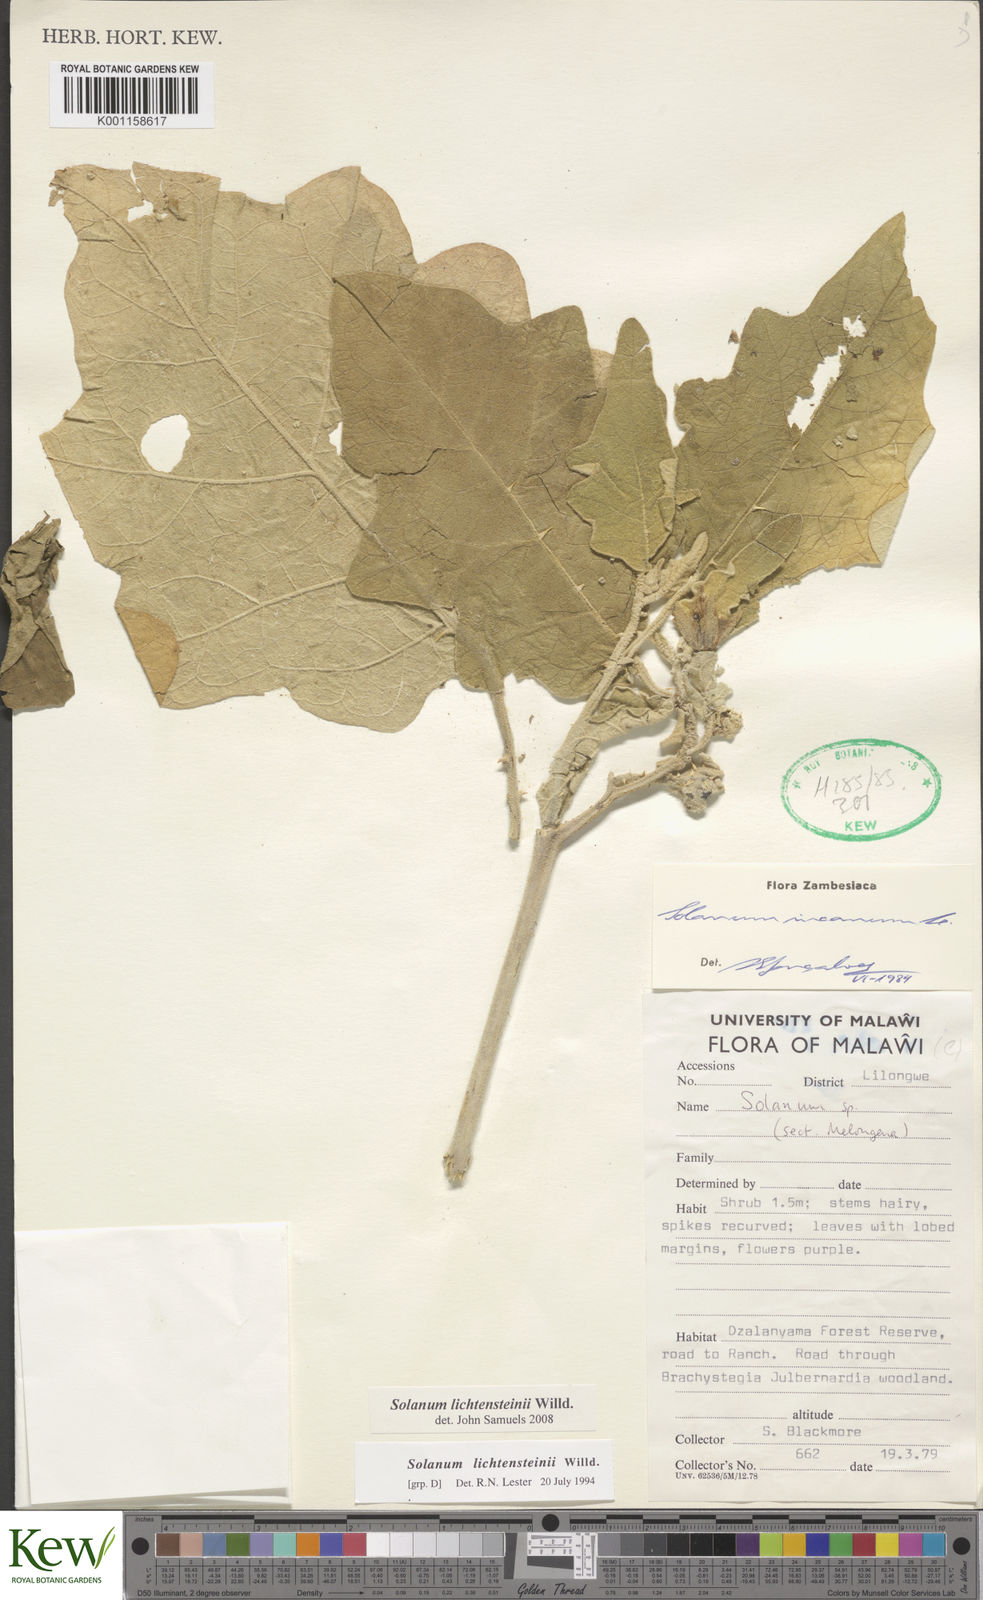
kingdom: Plantae
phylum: Tracheophyta
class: Magnoliopsida
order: Solanales
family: Solanaceae
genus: Solanum
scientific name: Solanum lichtensteinii
